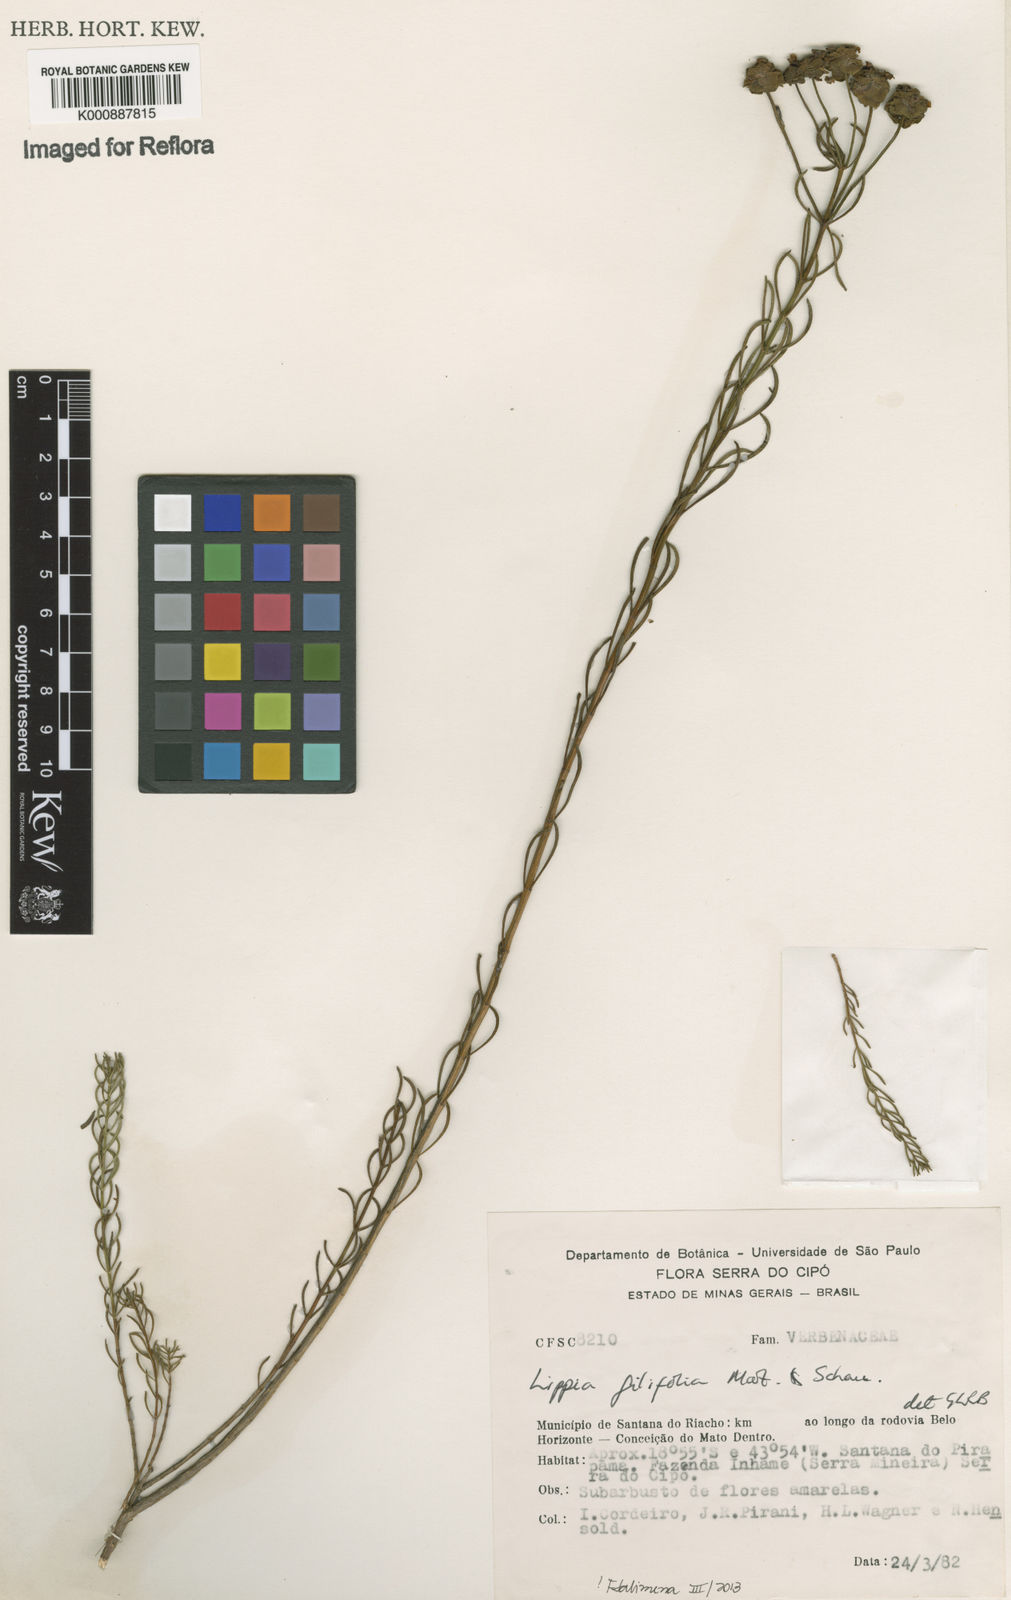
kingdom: Plantae
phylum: Tracheophyta
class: Magnoliopsida
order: Lamiales
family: Verbenaceae
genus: Lippia
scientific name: Lippia filifolia
